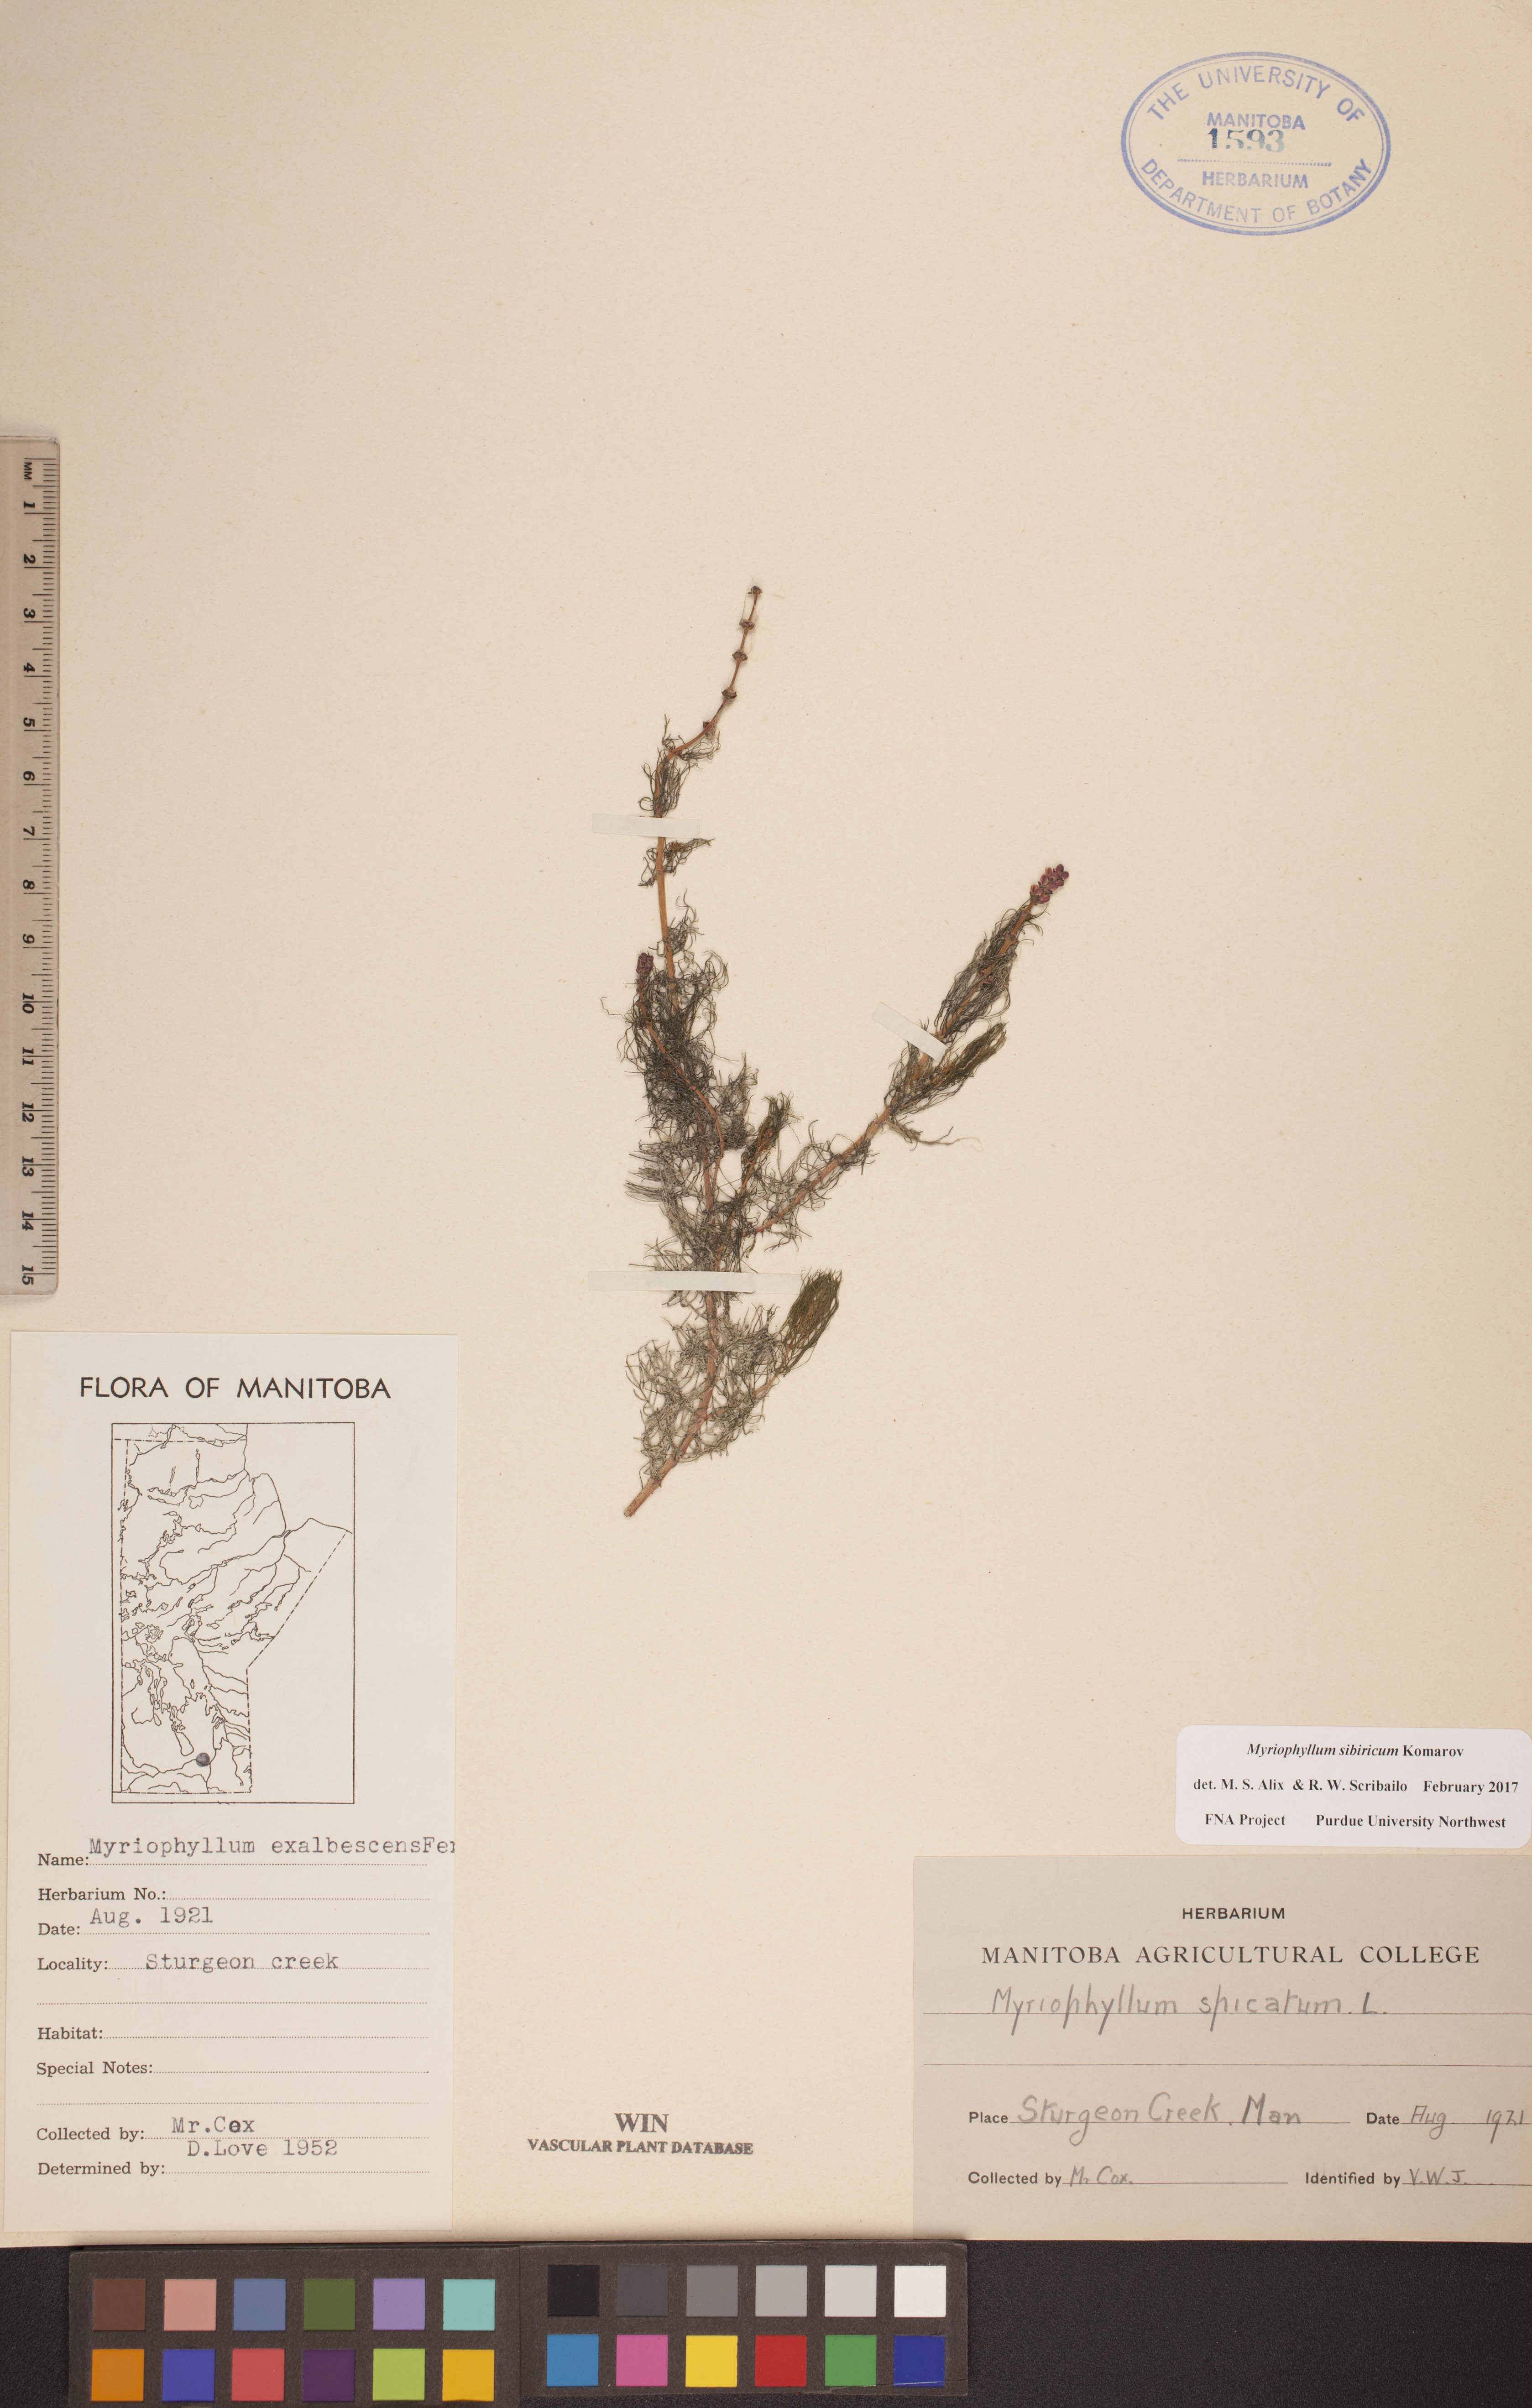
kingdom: Plantae
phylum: Tracheophyta
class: Magnoliopsida
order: Saxifragales
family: Haloragaceae
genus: Myriophyllum
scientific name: Myriophyllum sibiricum
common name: Siberian water-milfoil
